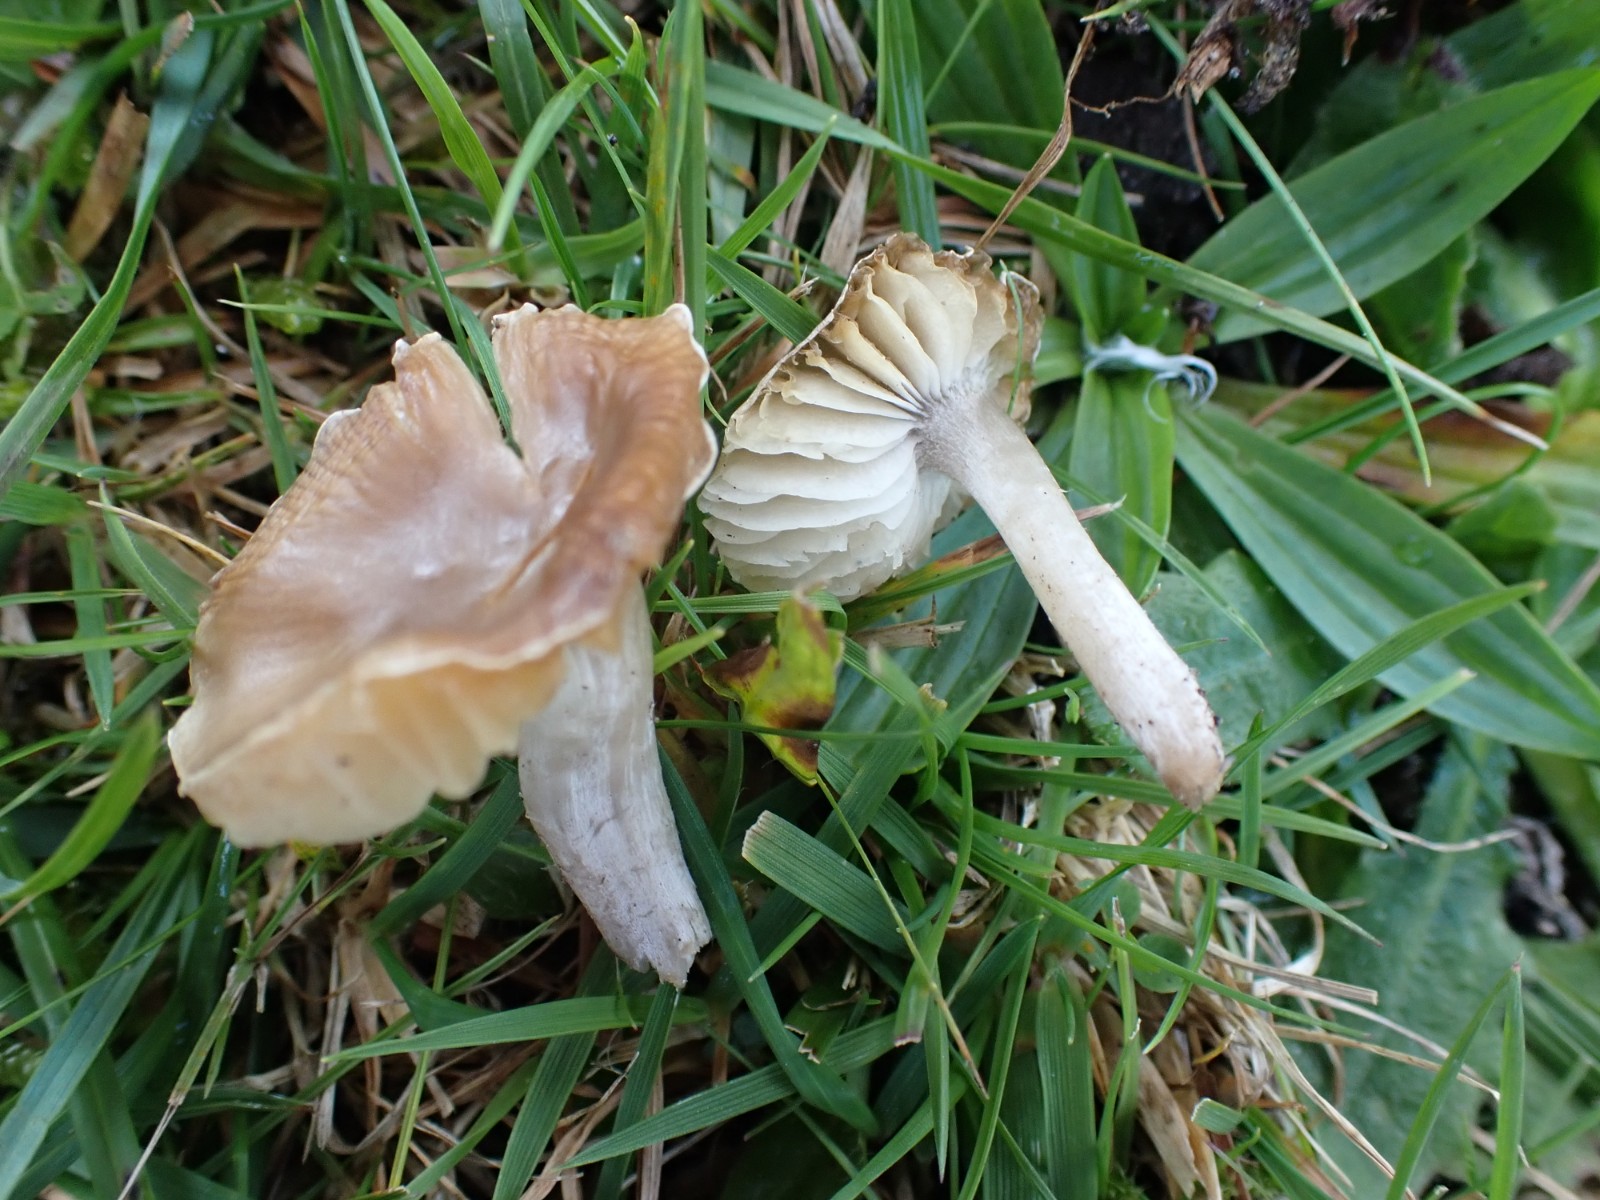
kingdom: Fungi
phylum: Basidiomycota
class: Agaricomycetes
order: Agaricales
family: Tricholomataceae
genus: Dermoloma
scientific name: Dermoloma cuneifolium
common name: eng-nonnehat
